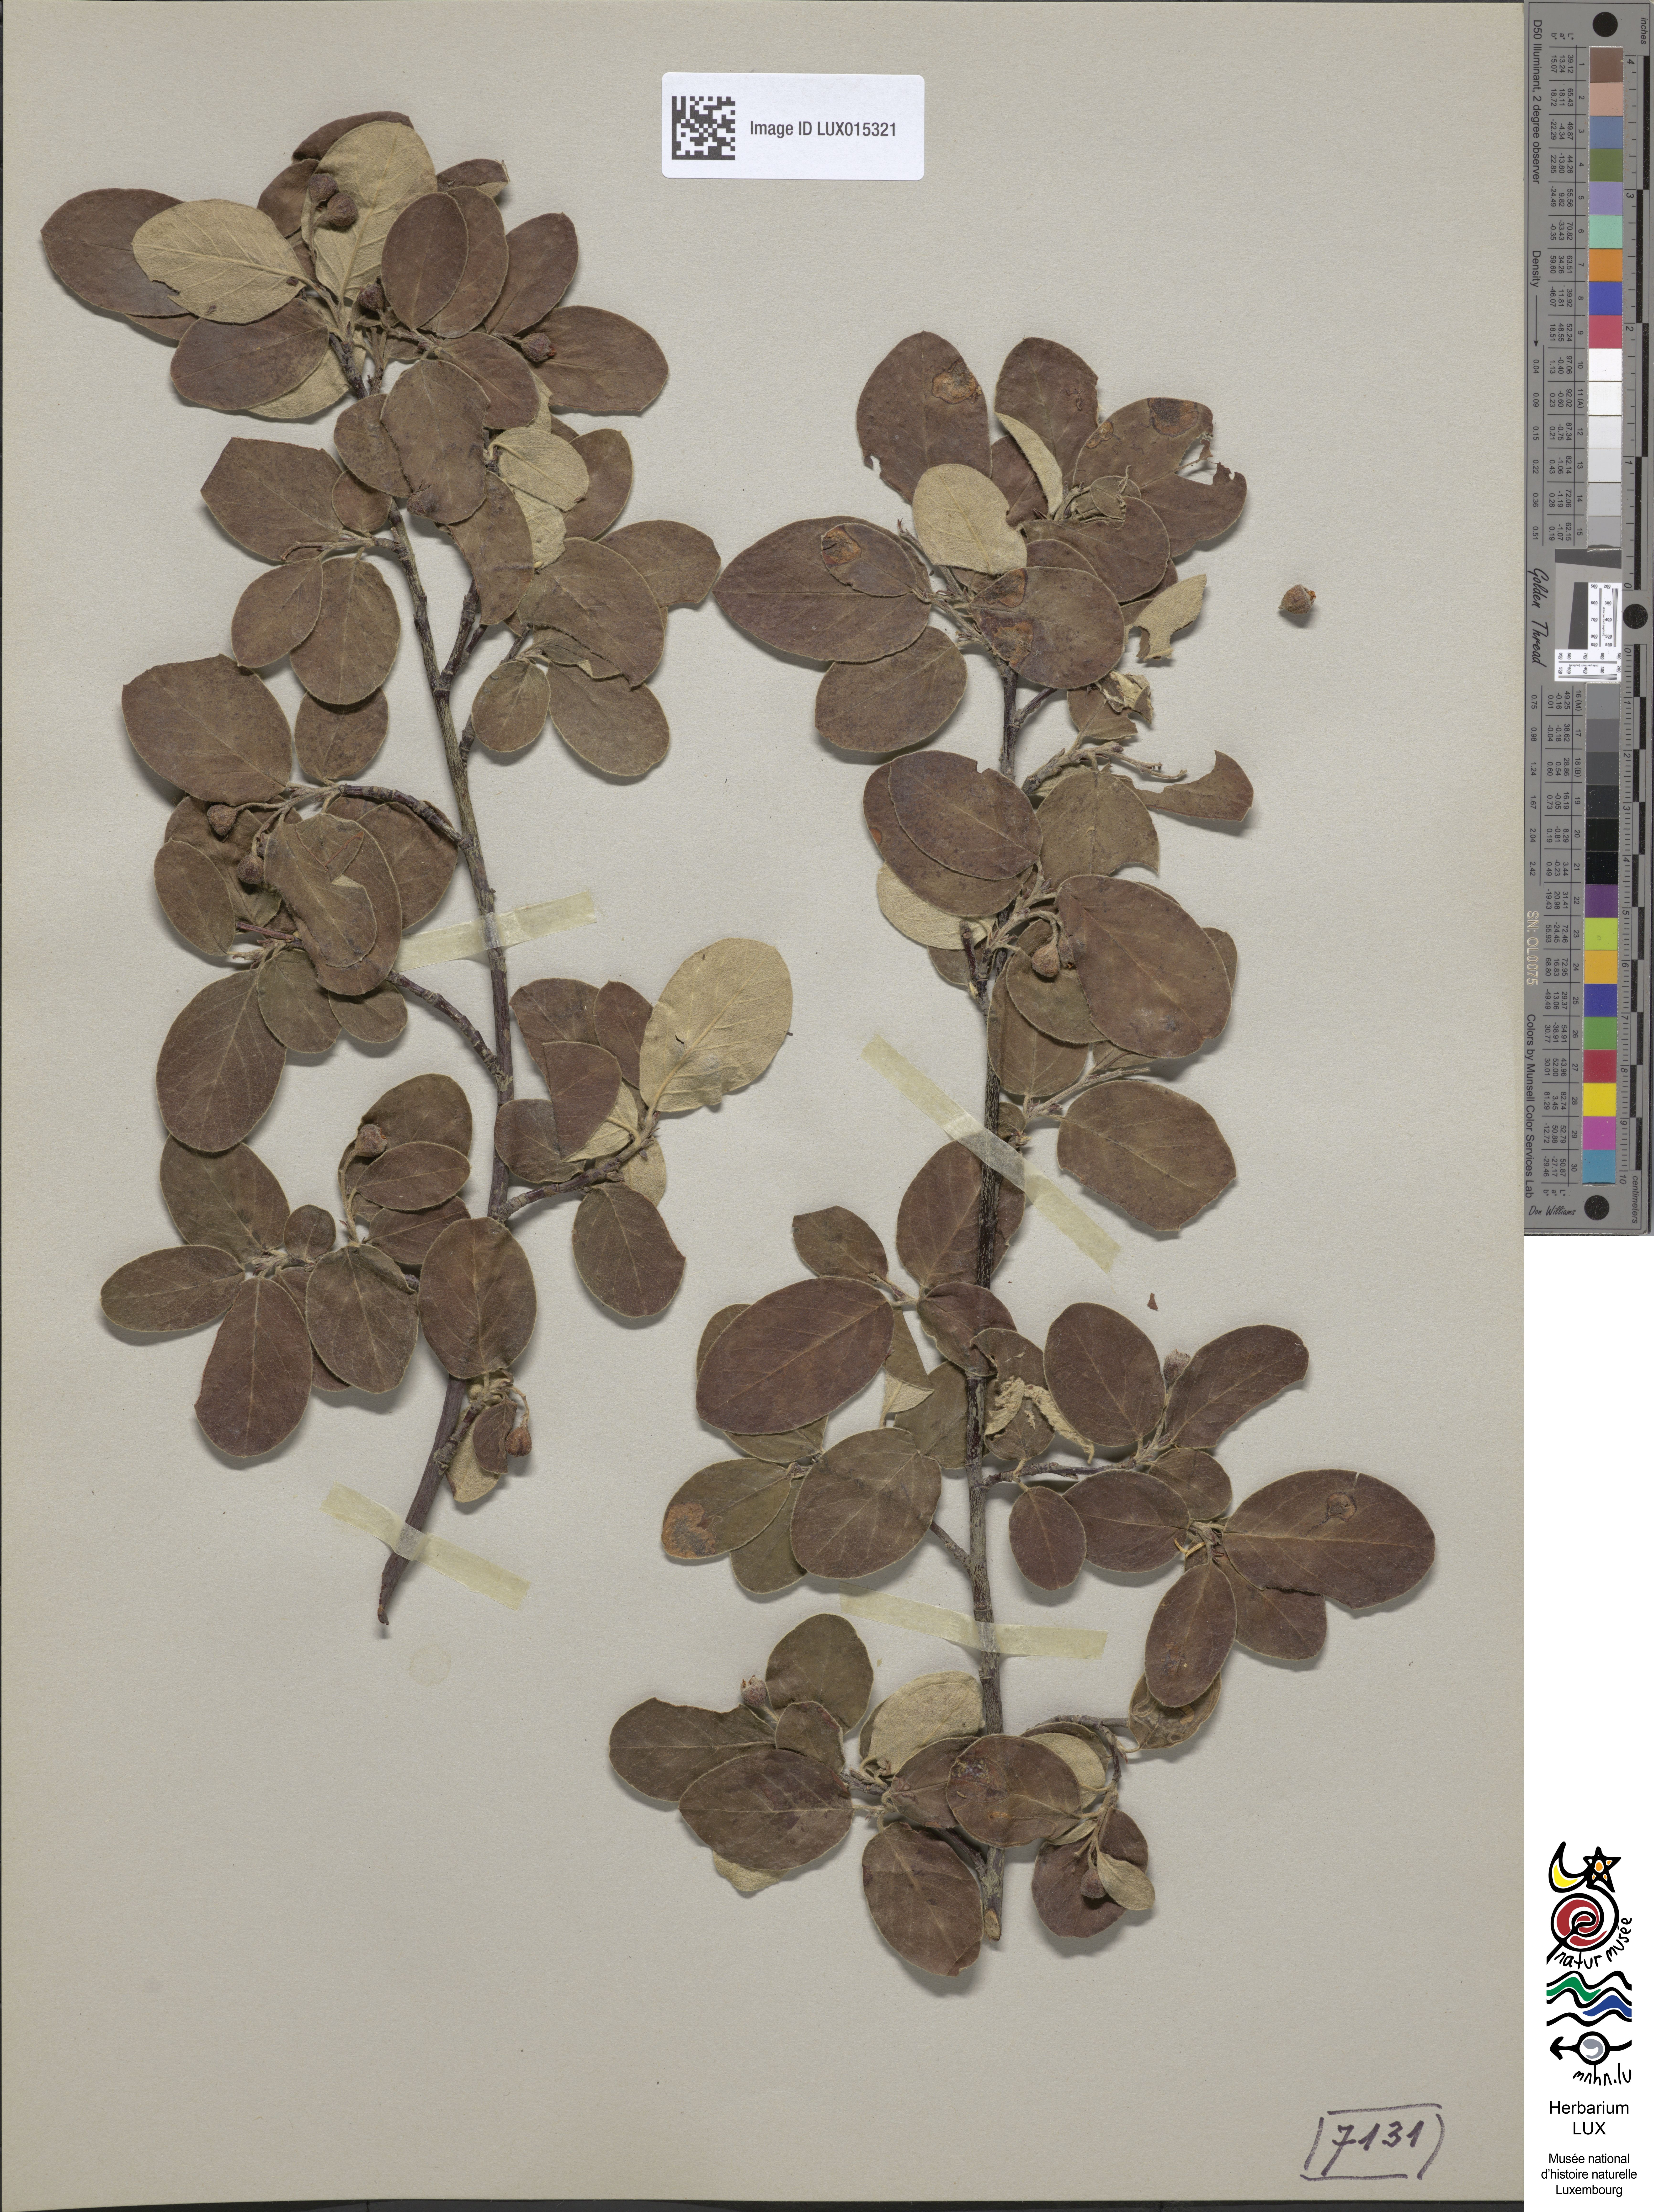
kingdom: Plantae
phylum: Tracheophyta
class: Magnoliopsida
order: Rosales
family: Rosaceae
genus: Cotoneaster
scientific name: Cotoneaster tomentosus
